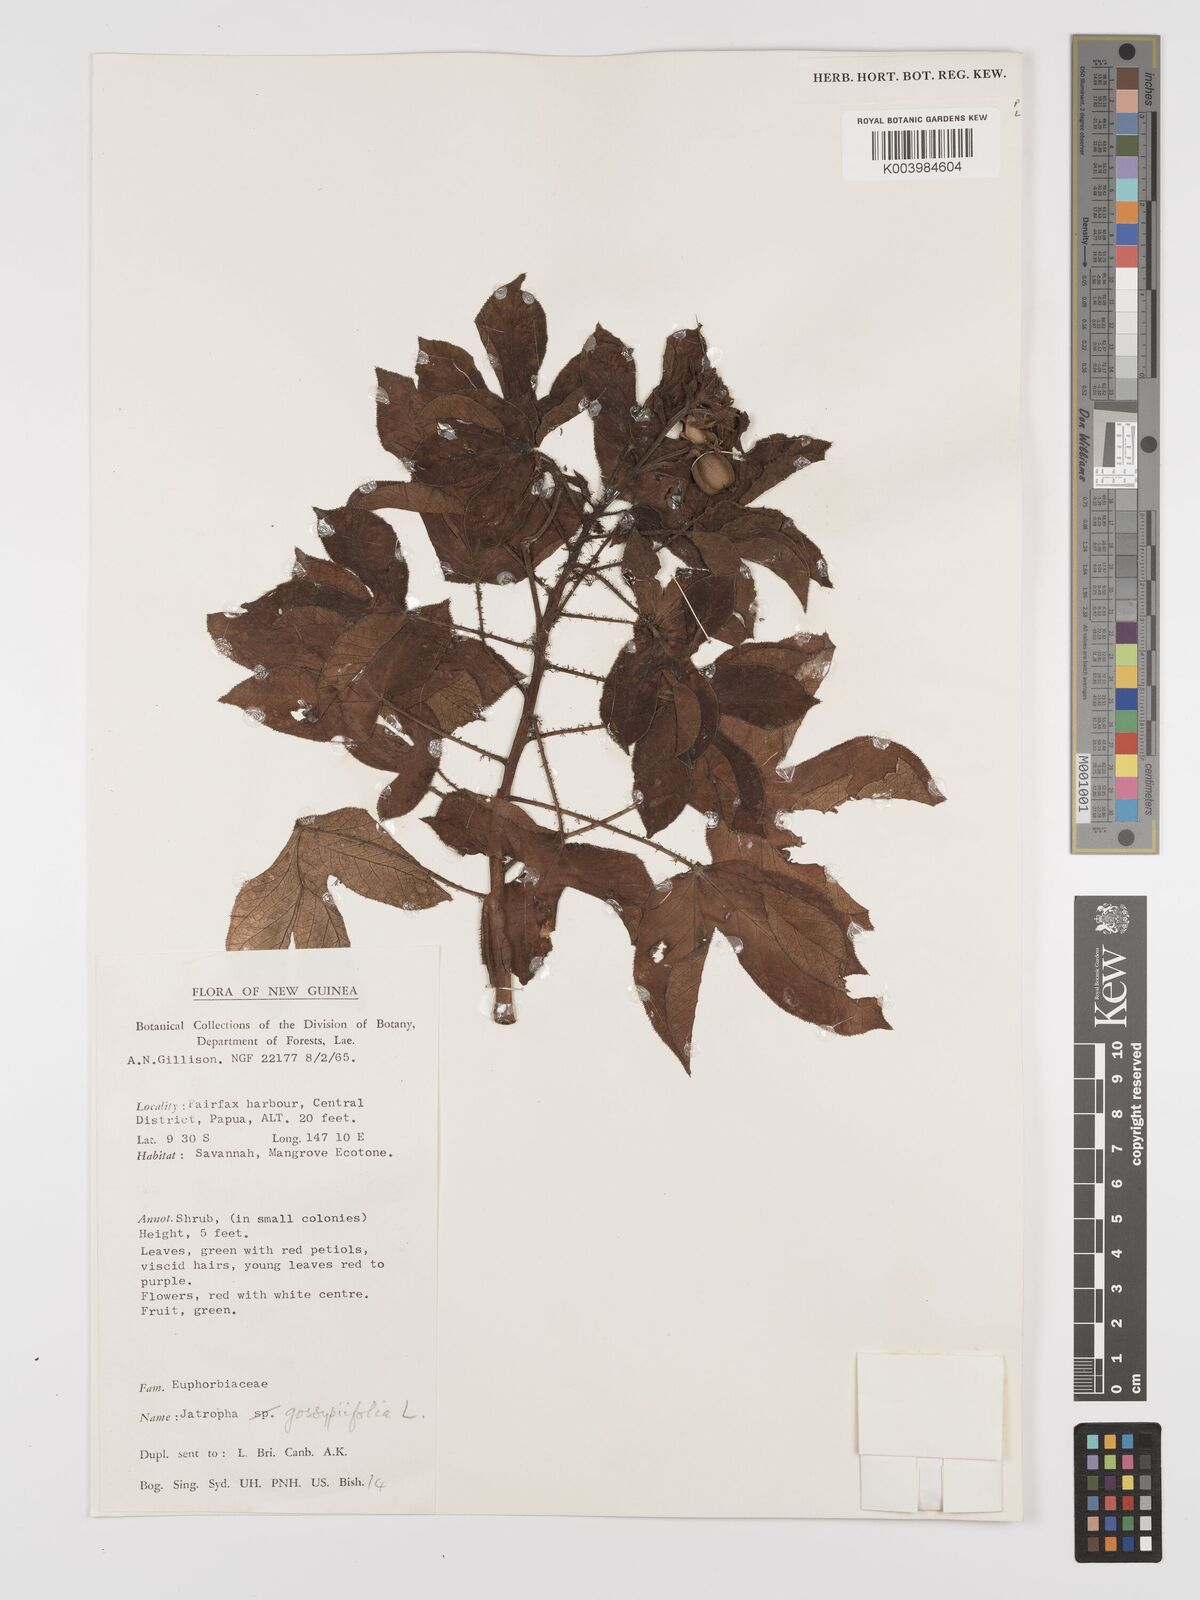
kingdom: Plantae
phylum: Tracheophyta
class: Magnoliopsida
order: Malpighiales
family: Euphorbiaceae
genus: Jatropha
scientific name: Jatropha gossypiifolia
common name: Bellyache bush
